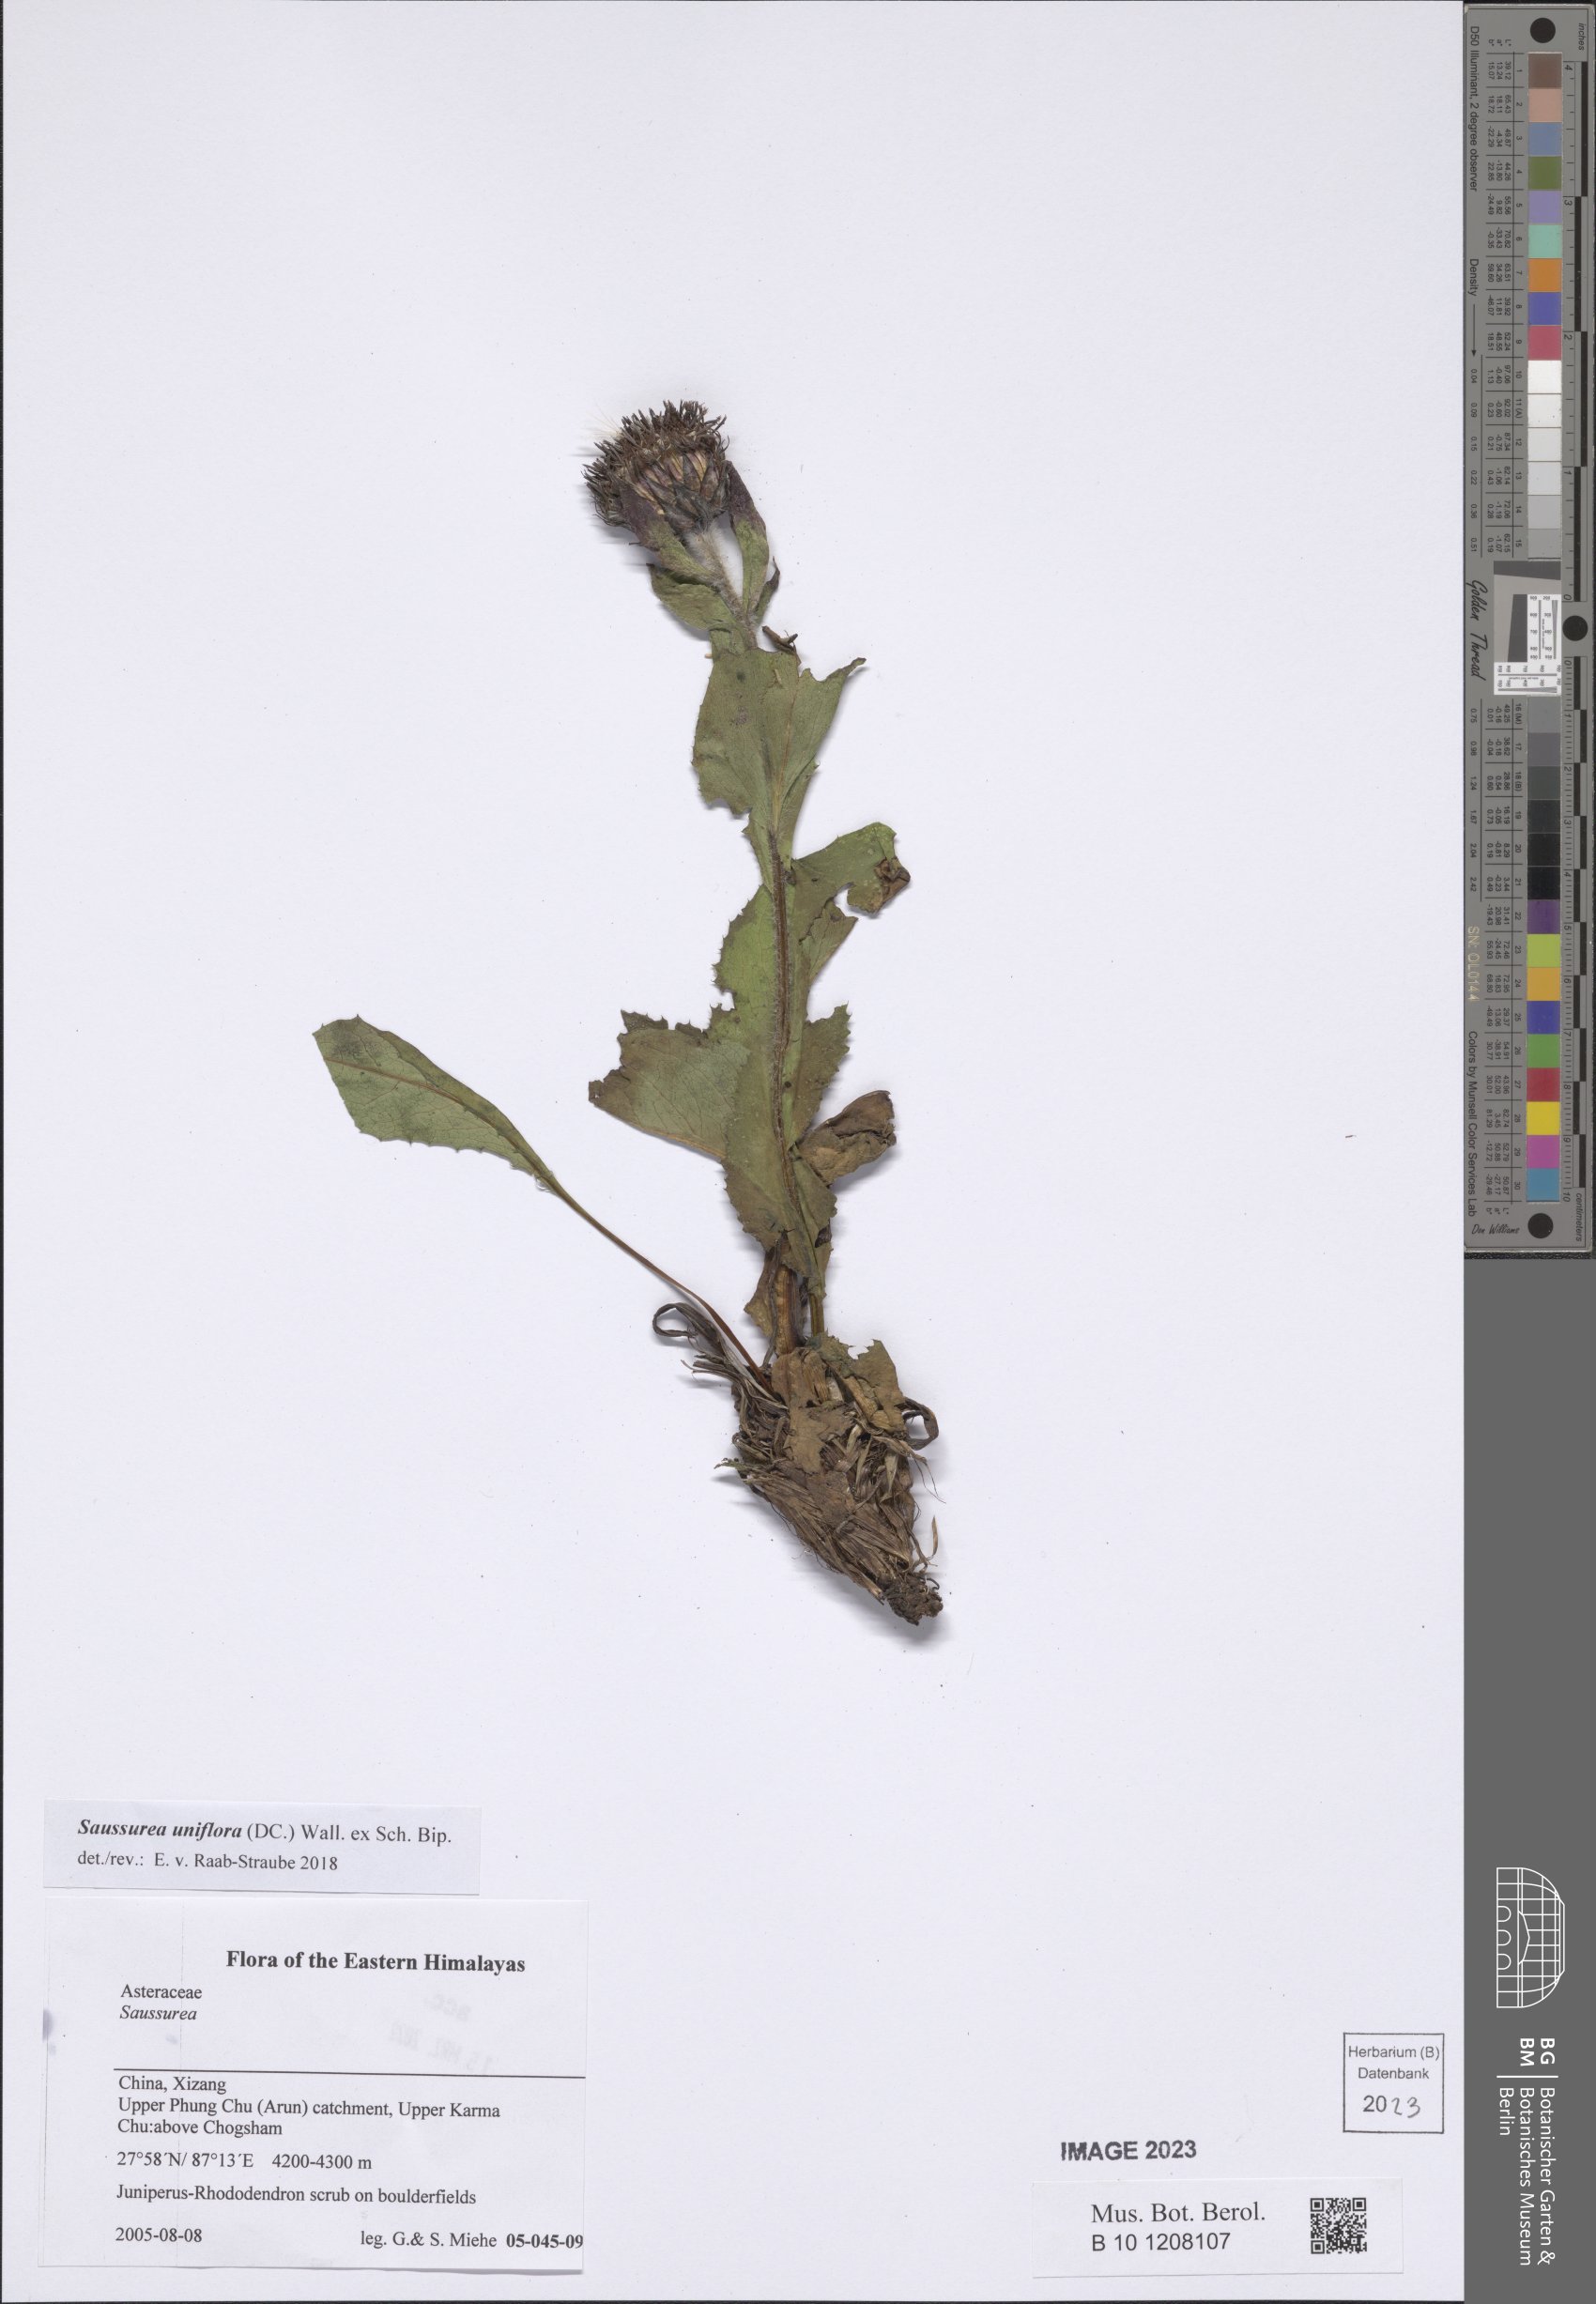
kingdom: Plantae
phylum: Tracheophyta
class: Magnoliopsida
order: Asterales
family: Asteraceae
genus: Saussurea
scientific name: Saussurea uniflora
